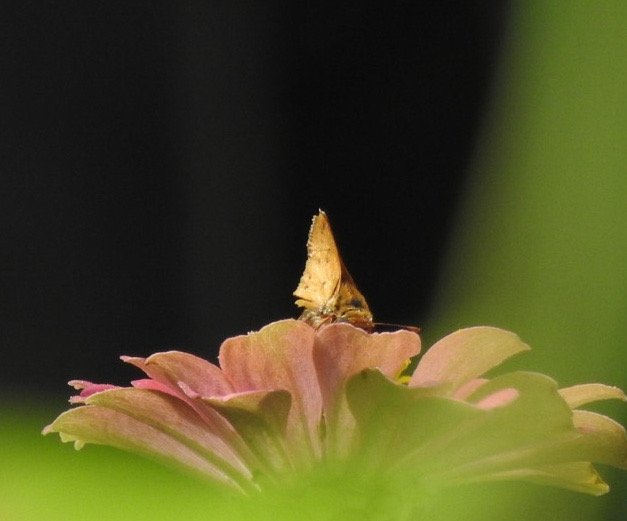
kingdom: Animalia
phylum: Arthropoda
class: Insecta
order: Lepidoptera
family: Hesperiidae
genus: Hylephila
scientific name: Hylephila phyleus
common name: Fiery Skipper
